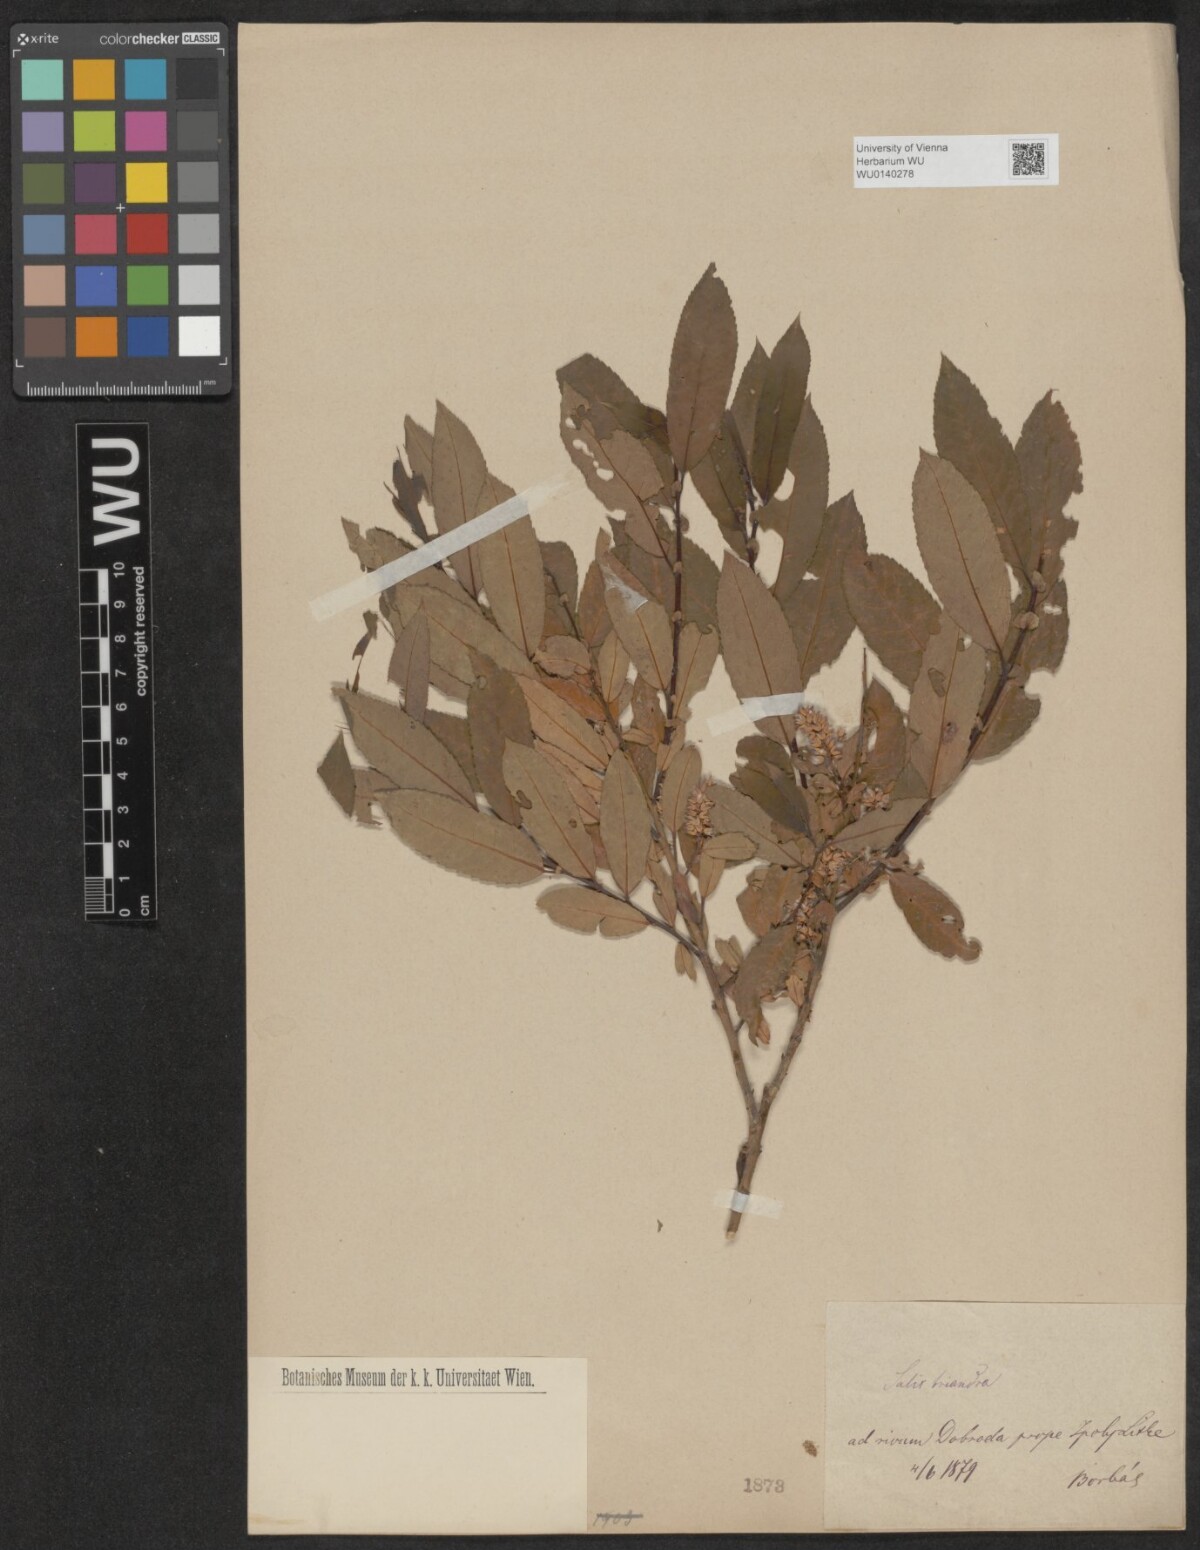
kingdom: Plantae
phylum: Tracheophyta
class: Magnoliopsida
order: Malpighiales
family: Salicaceae
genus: Salix
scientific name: Salix triandra
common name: Almond willow
